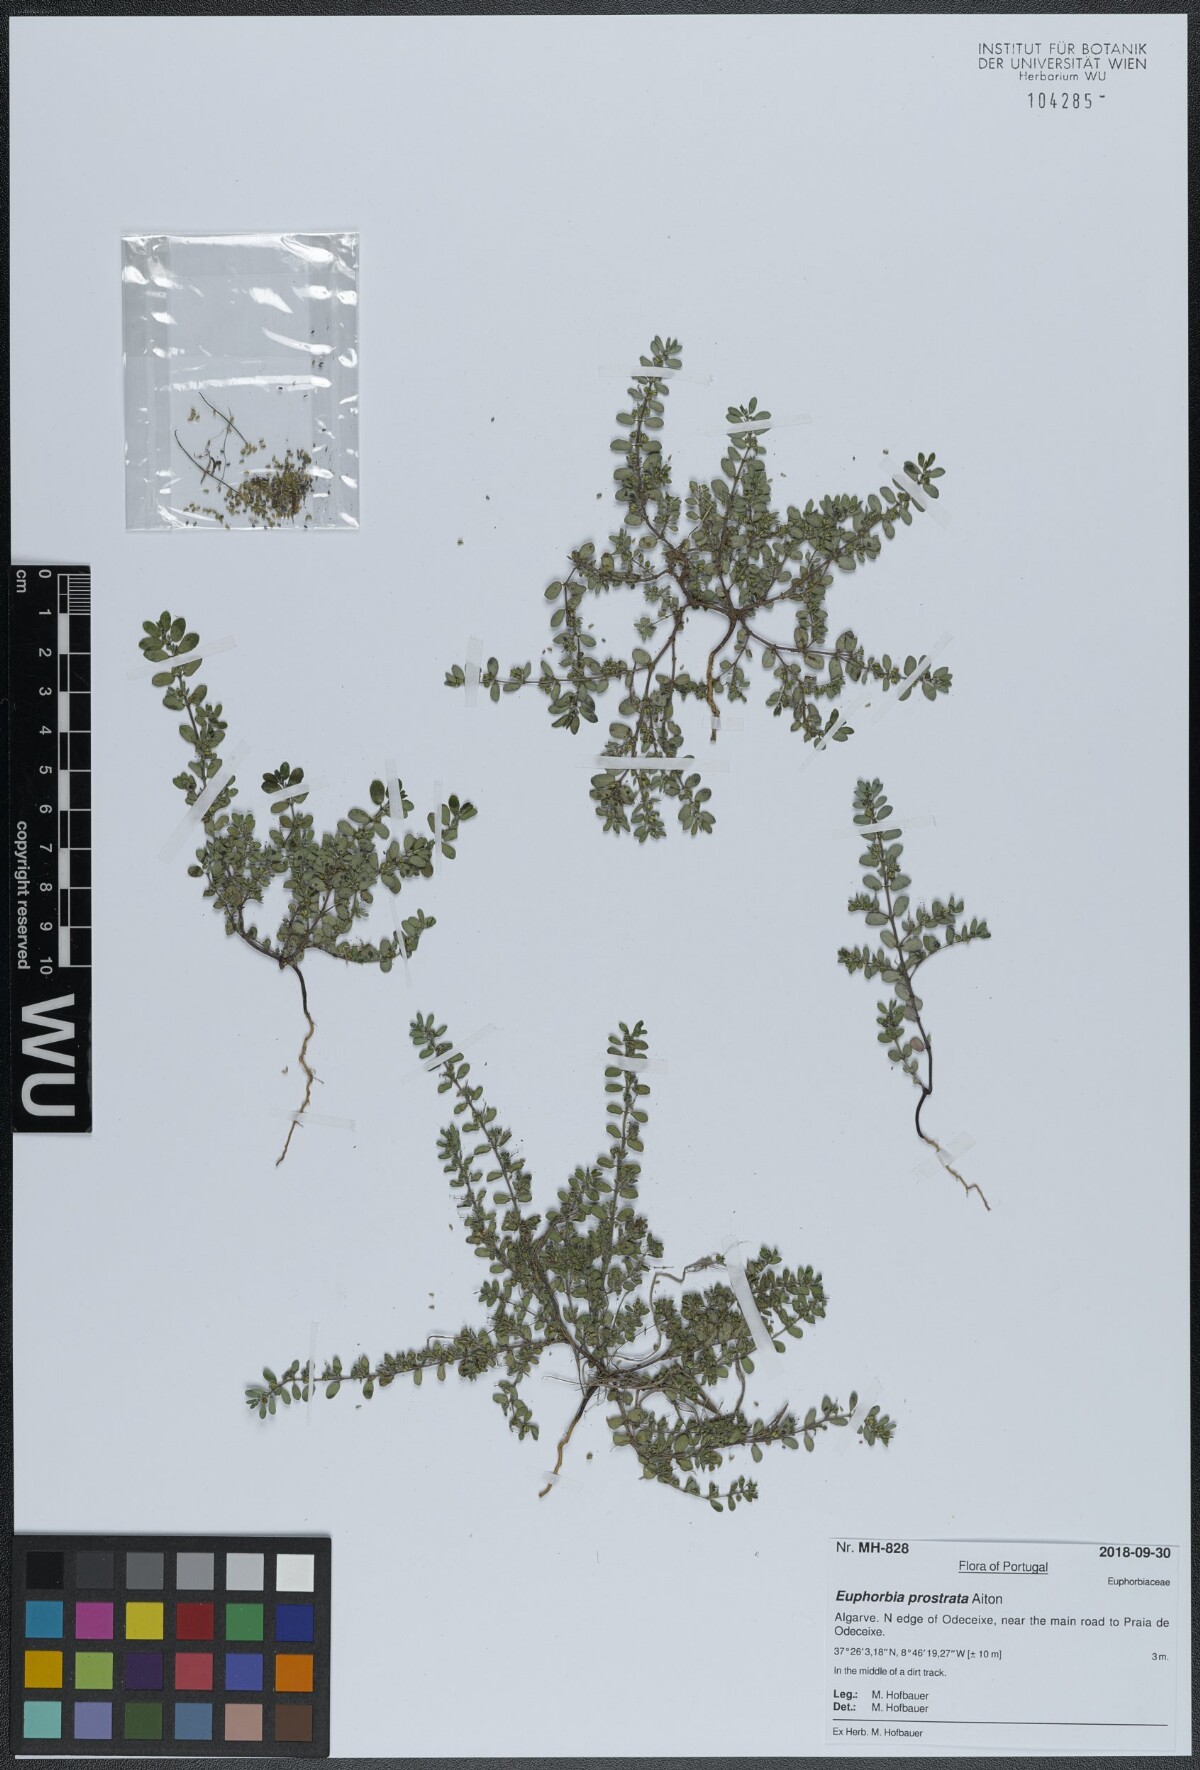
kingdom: Plantae
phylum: Tracheophyta
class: Magnoliopsida
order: Malpighiales
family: Euphorbiaceae
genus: Euphorbia
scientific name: Euphorbia prostrata
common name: Prostrate sandmat
